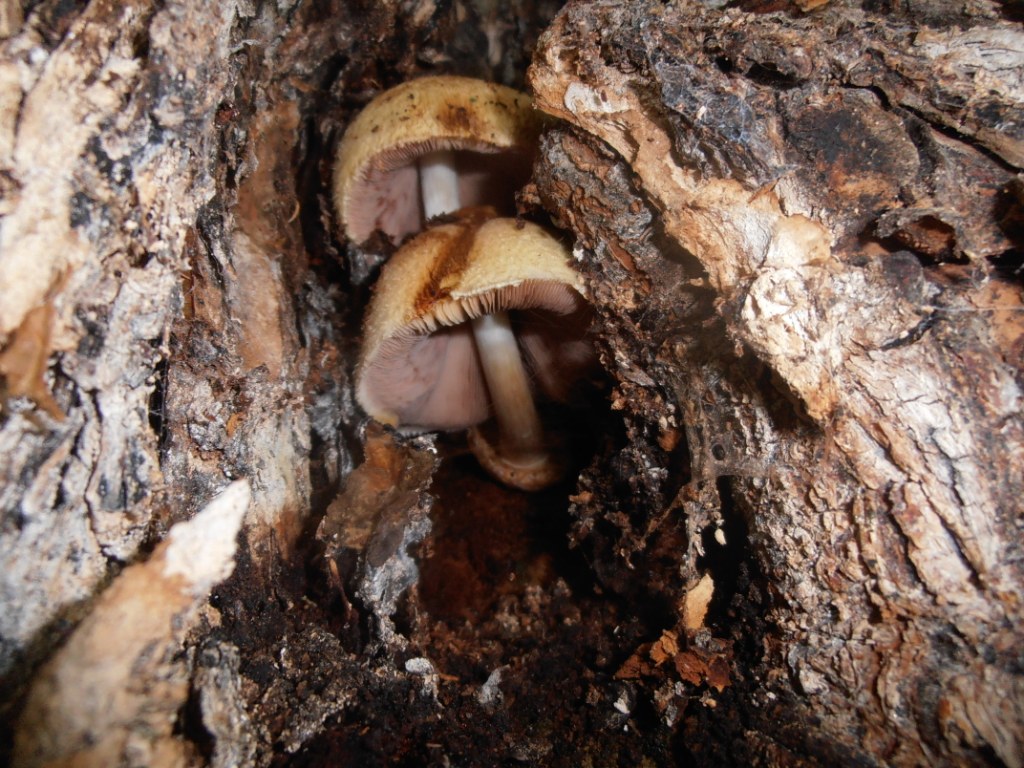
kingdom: Fungi
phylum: Basidiomycota
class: Agaricomycetes
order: Agaricales
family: Pluteaceae
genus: Volvariella
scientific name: Volvariella bombycina
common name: silkehåret posesvamp
